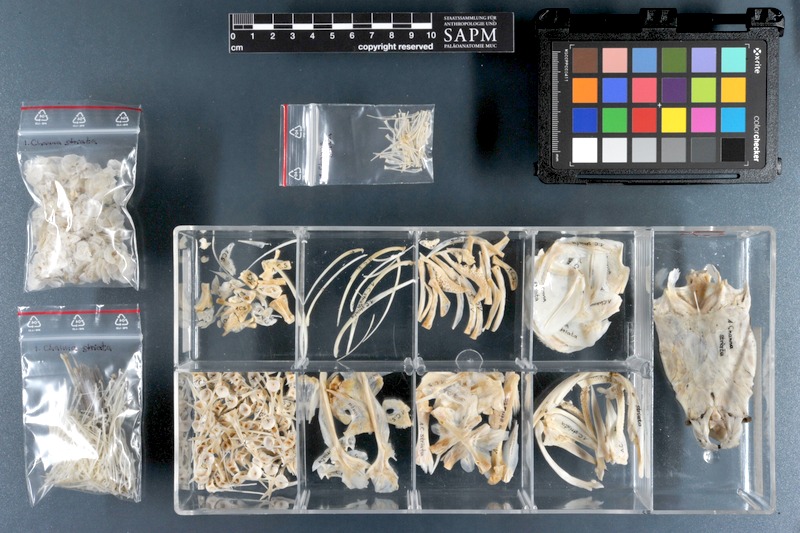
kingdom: Animalia
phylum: Chordata
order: Perciformes
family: Channidae
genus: Channa
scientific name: Channa striata
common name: Striped snakehead
